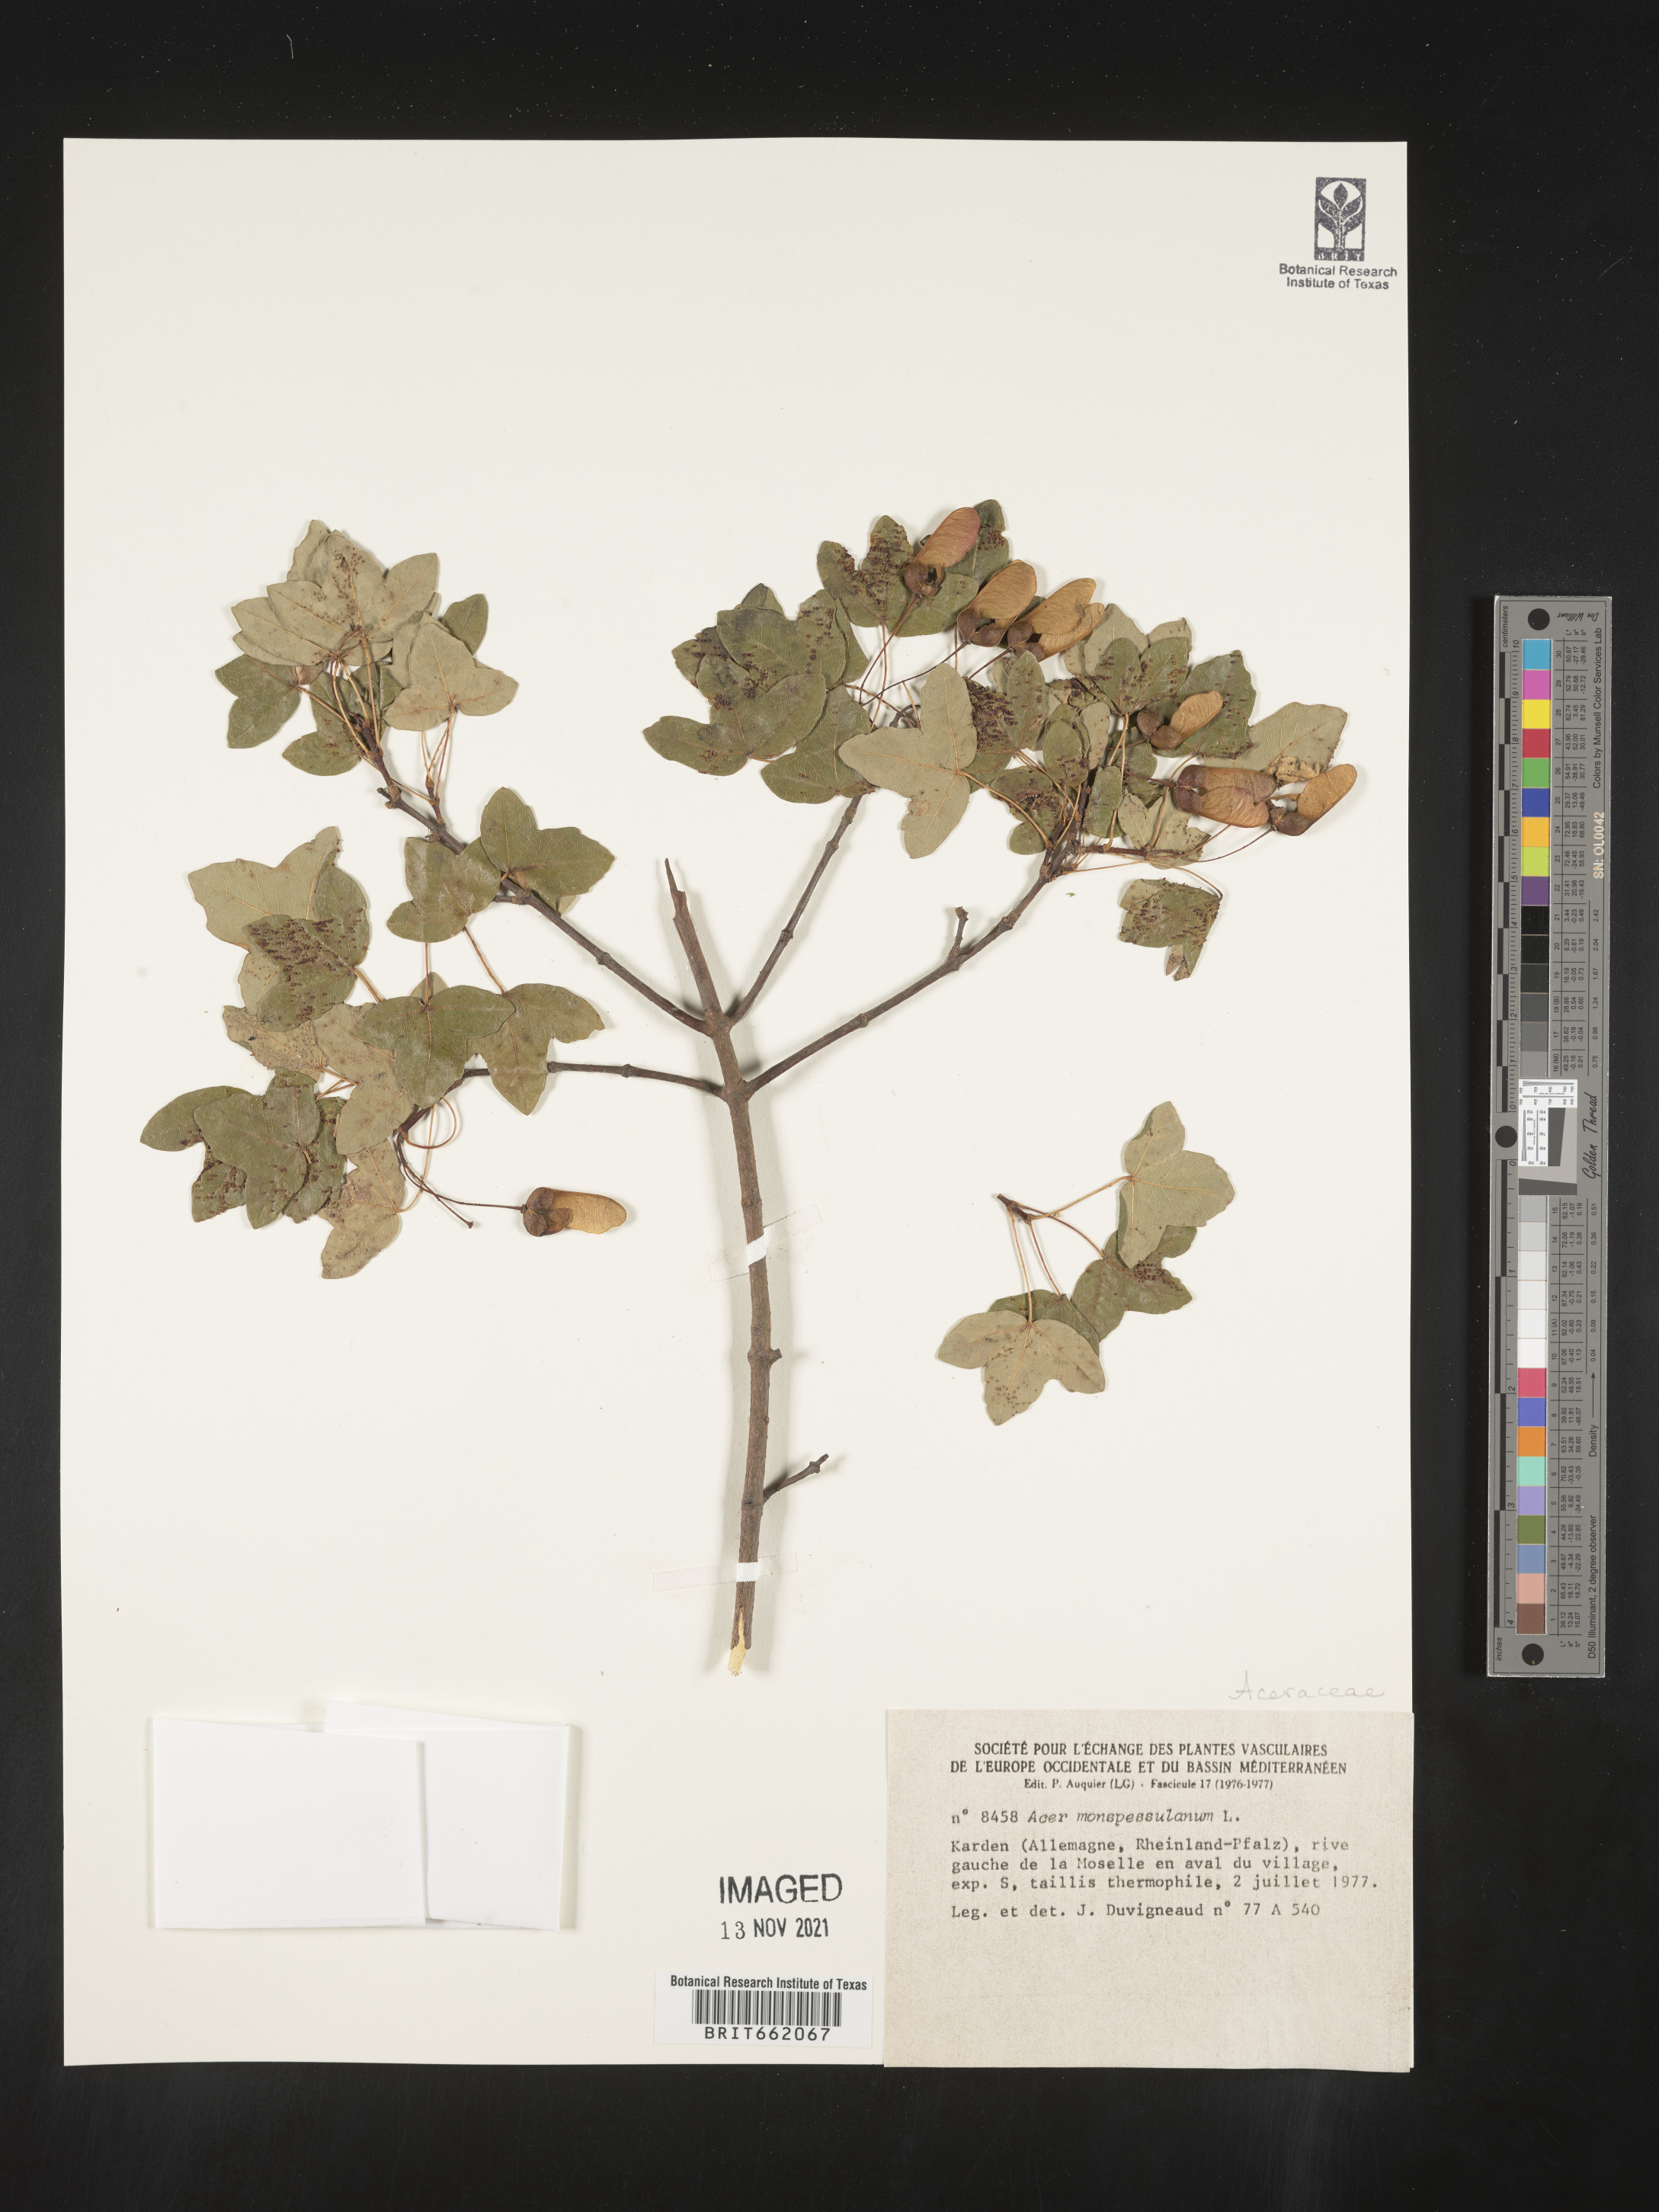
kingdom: Plantae
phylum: Tracheophyta
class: Magnoliopsida
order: Sapindales
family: Sapindaceae
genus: Acer
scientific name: Acer
